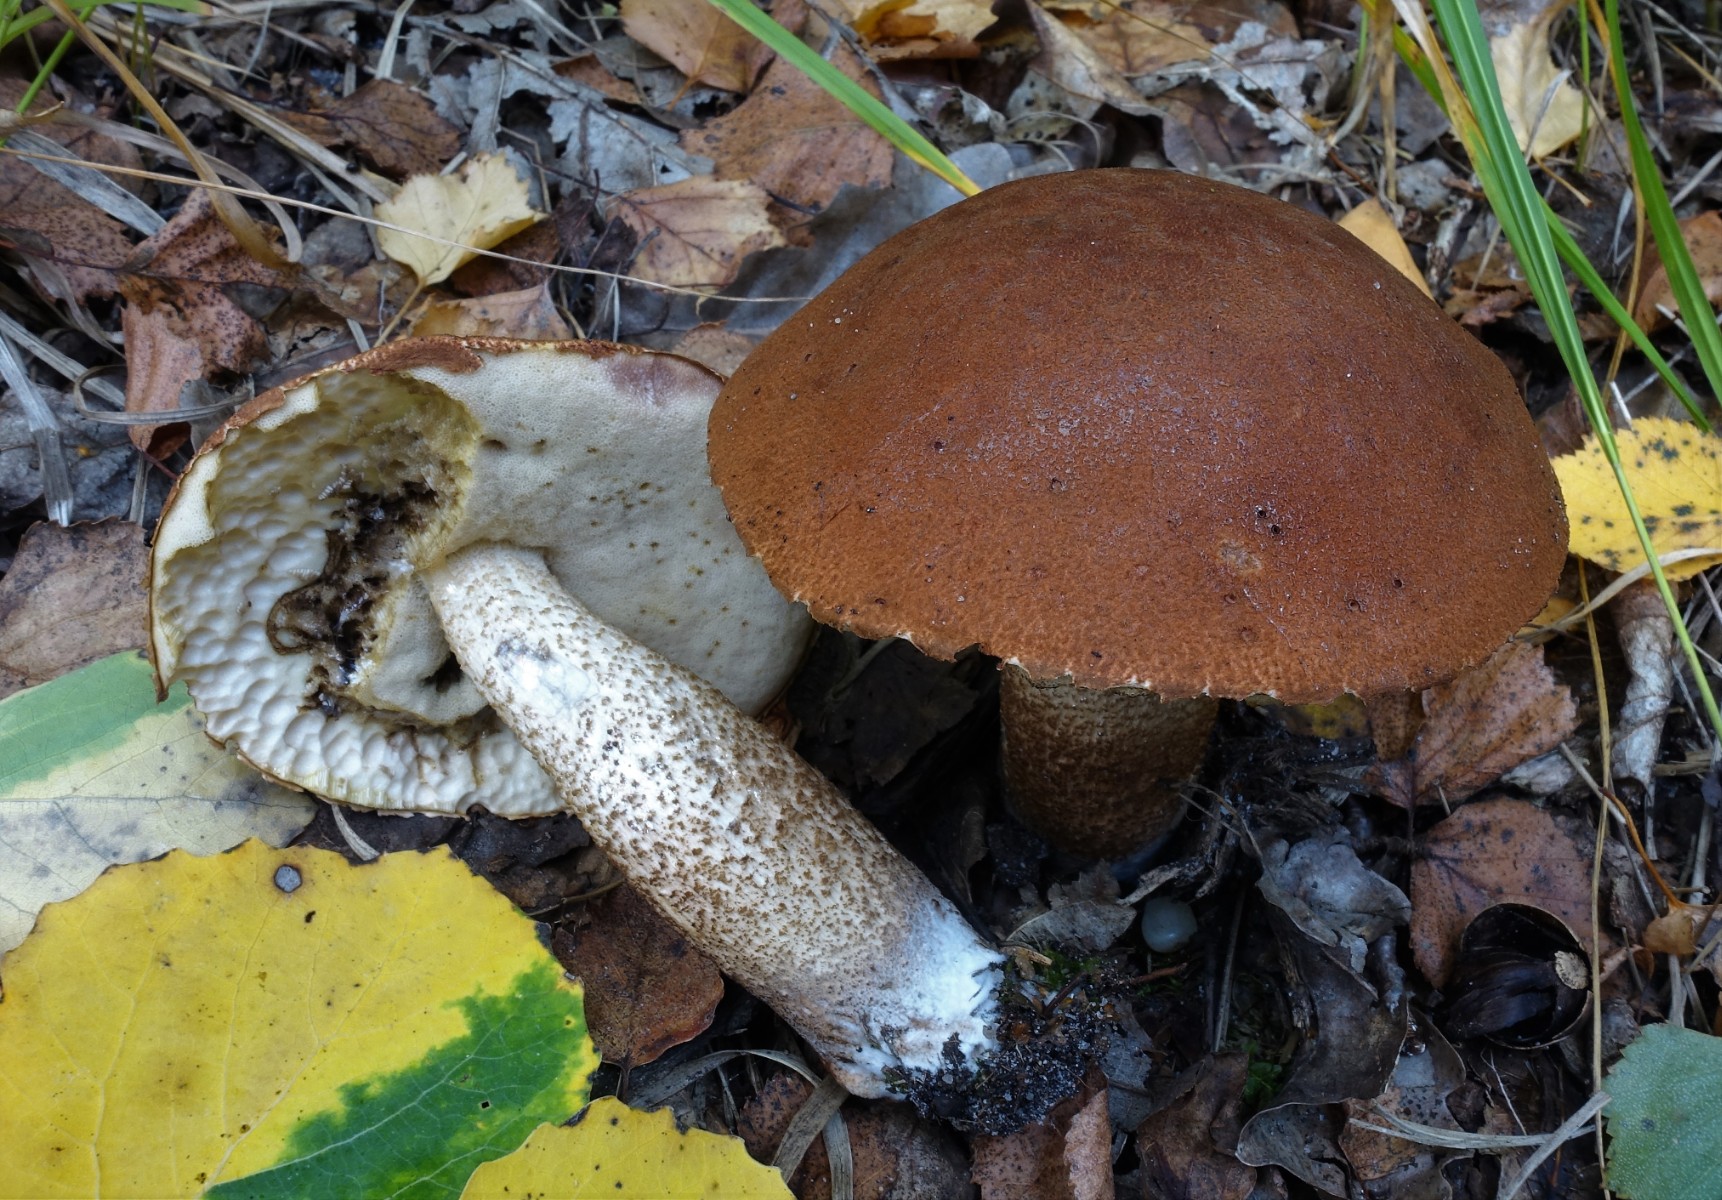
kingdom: Fungi
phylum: Basidiomycota
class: Agaricomycetes
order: Boletales
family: Boletaceae
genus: Leccinum
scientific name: Leccinum albostipitatum
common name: aspe-skælrørhat
